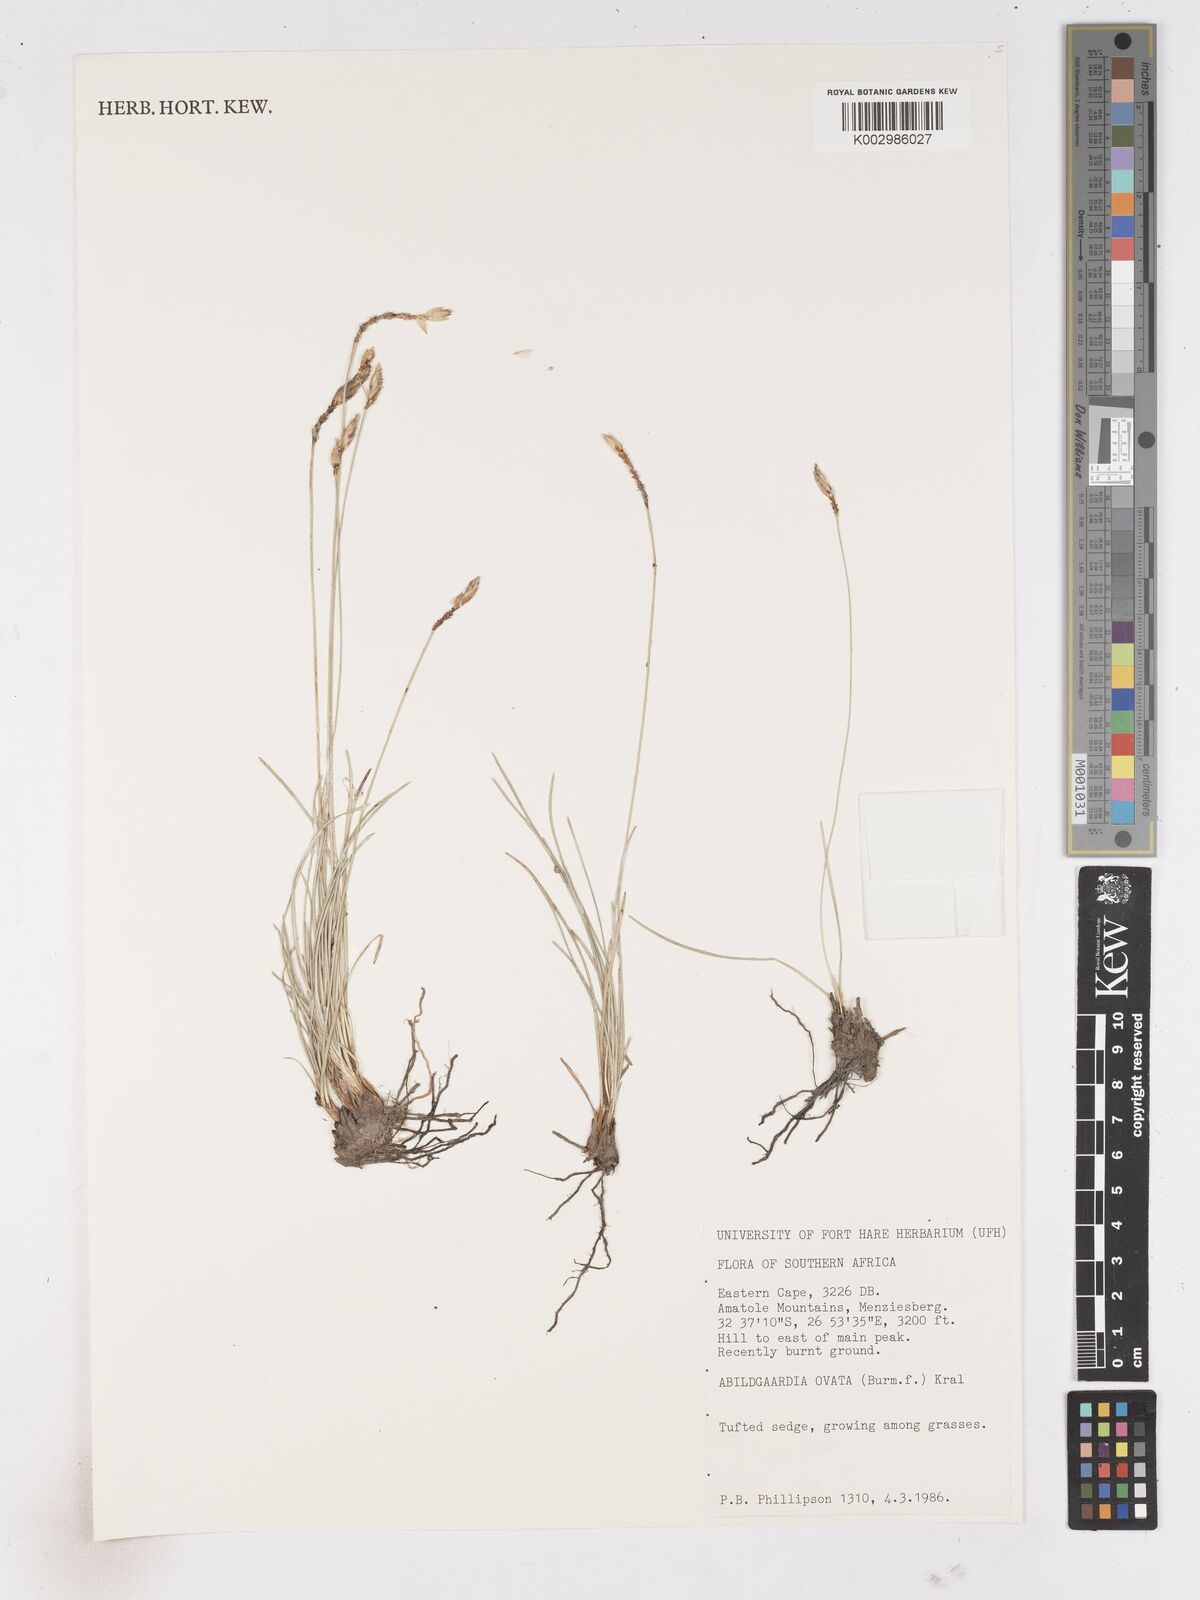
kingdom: Plantae
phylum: Tracheophyta
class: Liliopsida
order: Poales
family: Cyperaceae
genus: Abildgaardia
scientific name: Abildgaardia ovata
